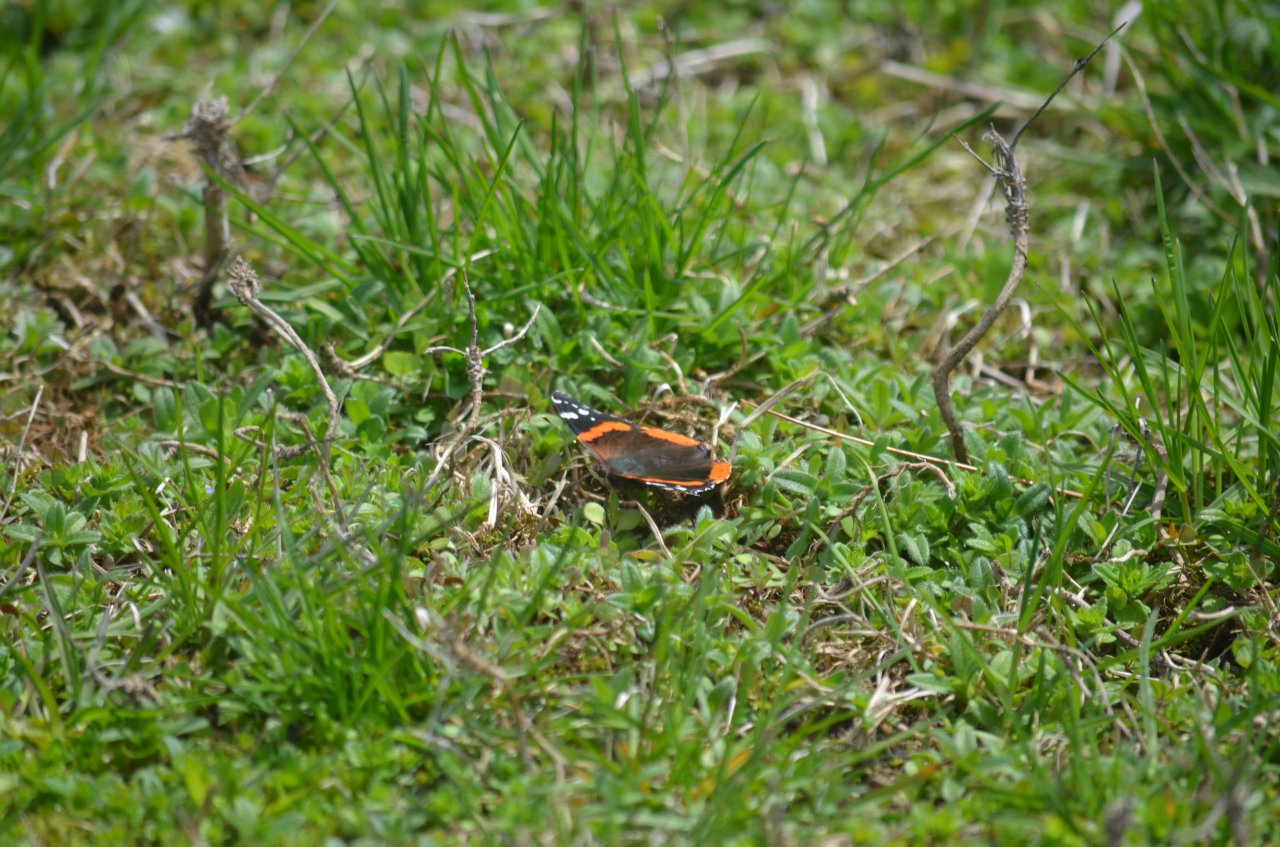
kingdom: Animalia
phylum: Arthropoda
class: Insecta
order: Lepidoptera
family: Nymphalidae
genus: Vanessa
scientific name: Vanessa atalanta
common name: Red Admiral
